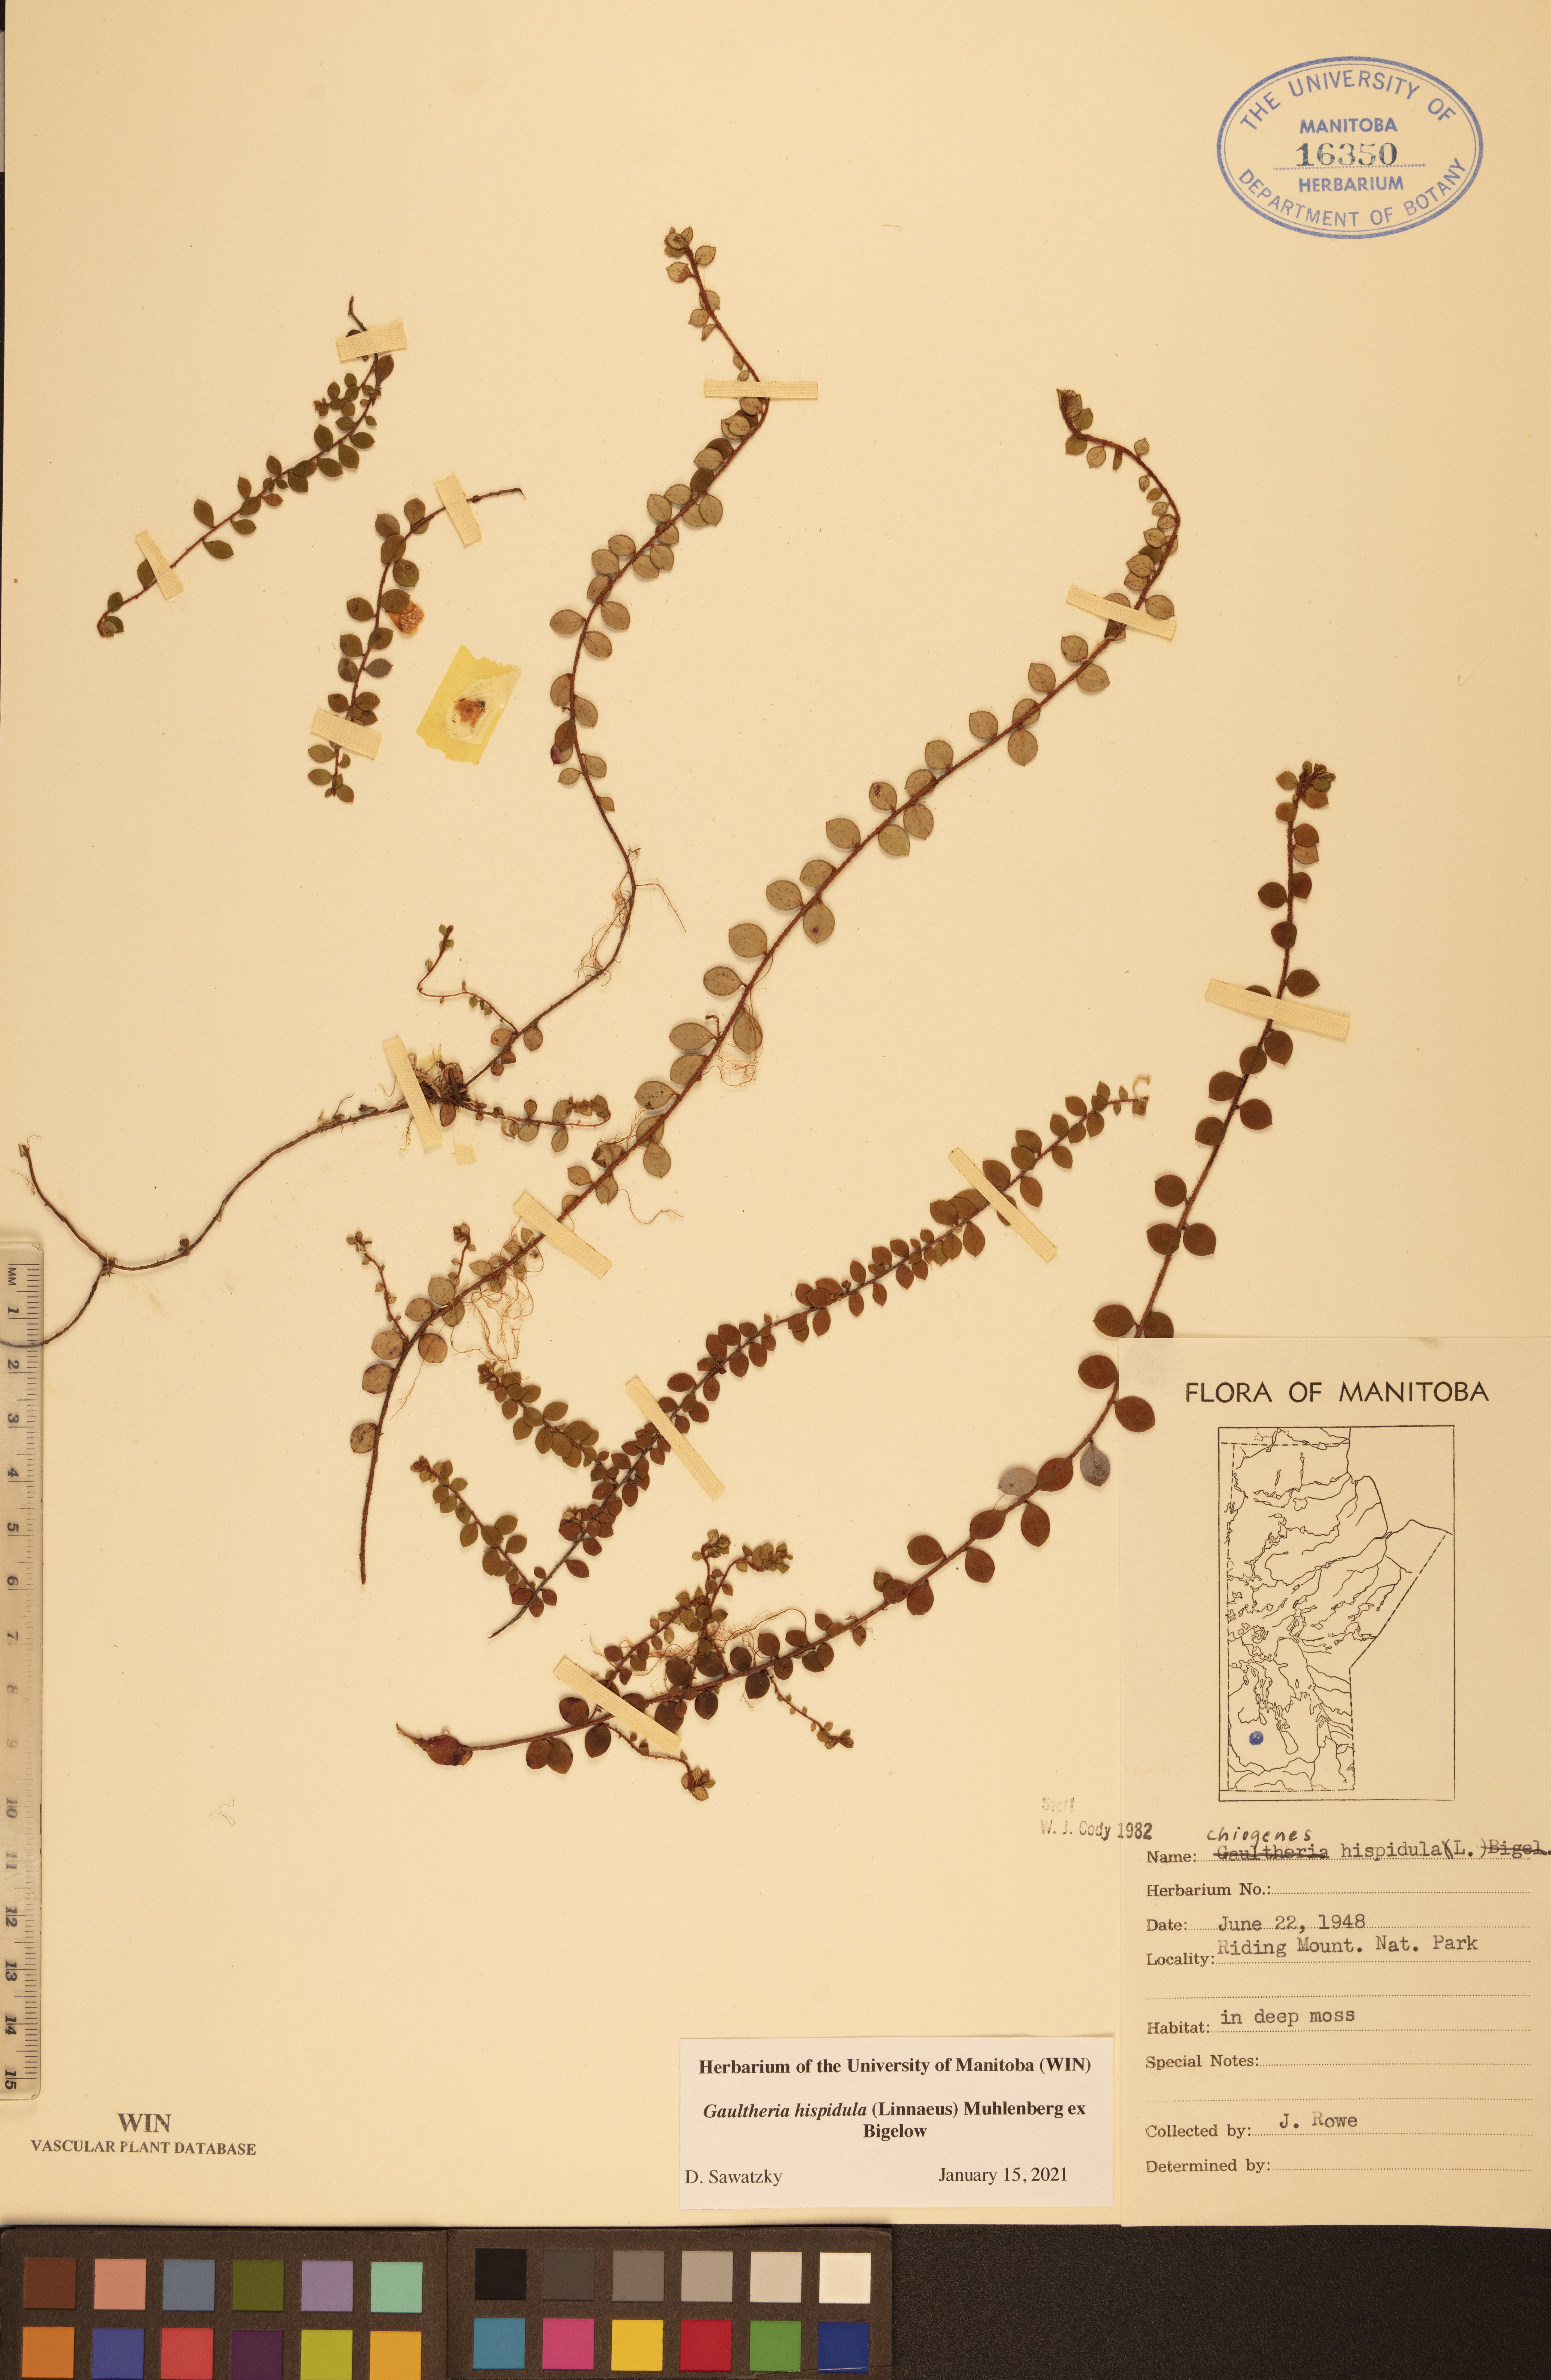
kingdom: Plantae
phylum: Tracheophyta
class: Magnoliopsida
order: Ericales
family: Ericaceae
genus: Gaultheria
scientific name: Gaultheria hispidula
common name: Cancer wintergreen
